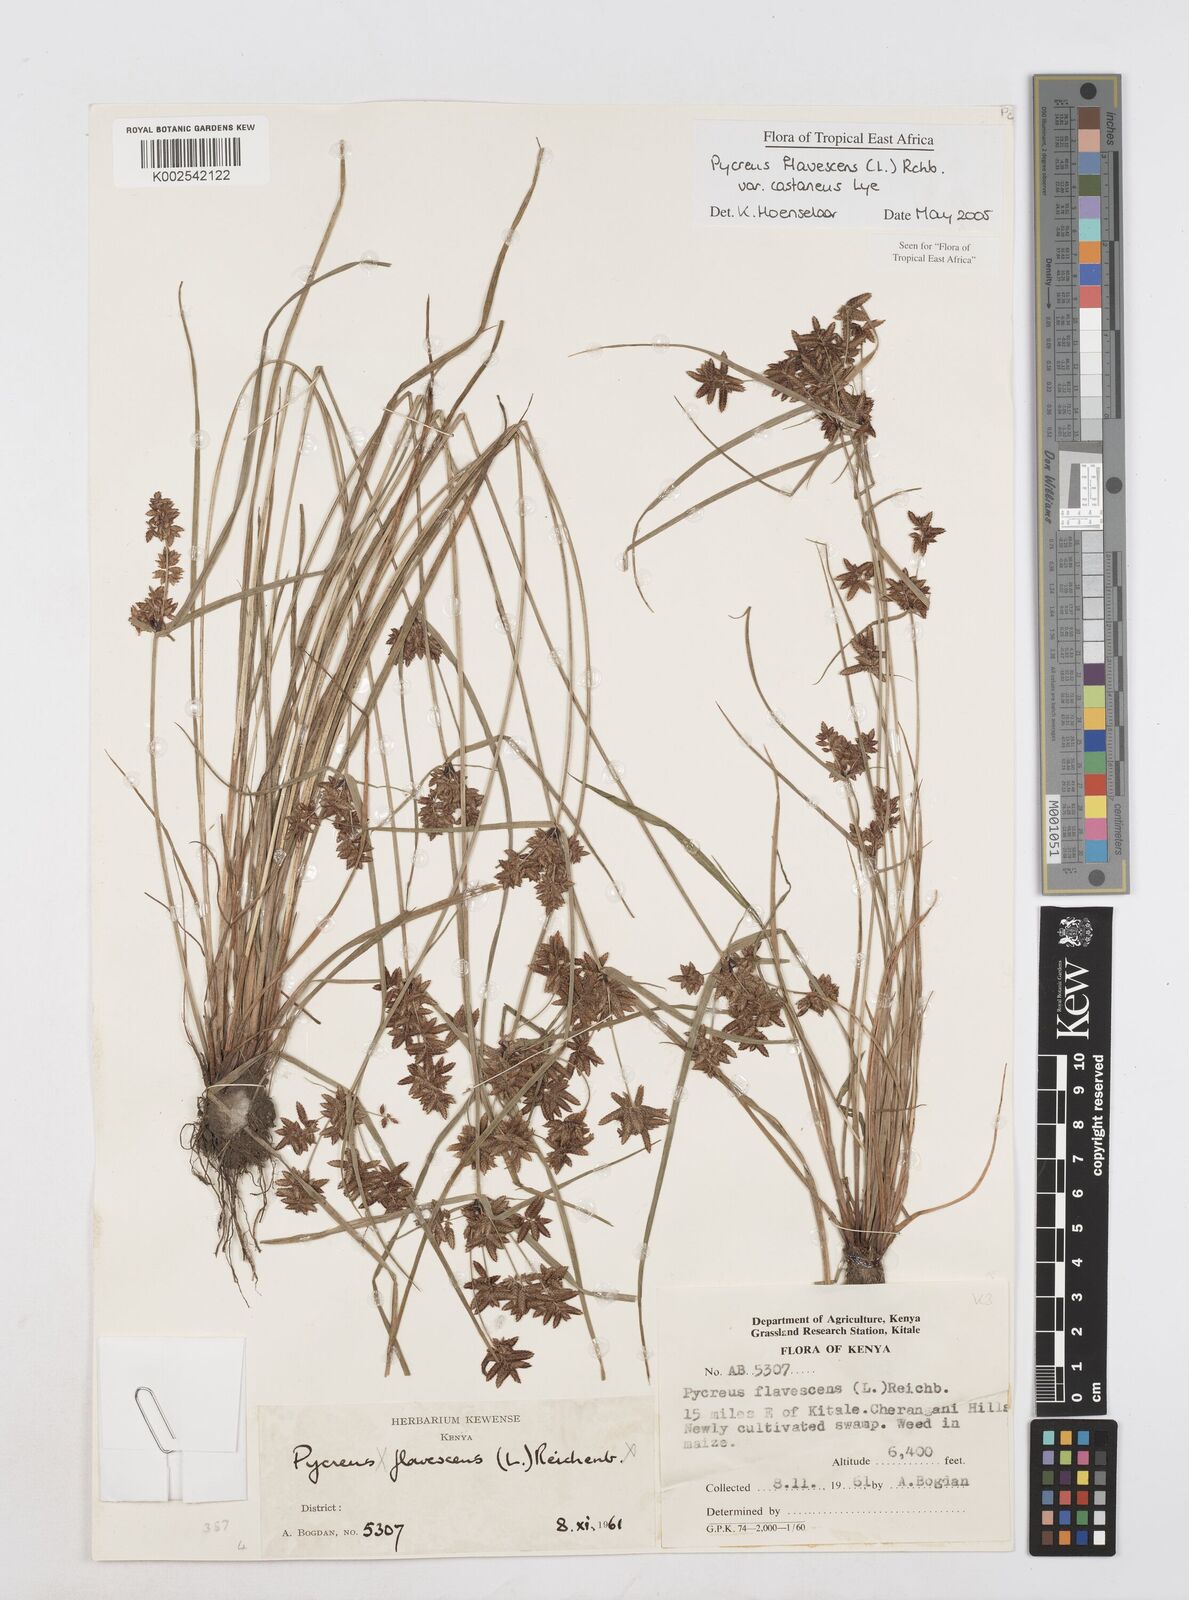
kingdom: Plantae
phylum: Tracheophyta
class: Liliopsida
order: Poales
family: Cyperaceae
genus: Cyperus
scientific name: Cyperus flavescens
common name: Yellow galingale
